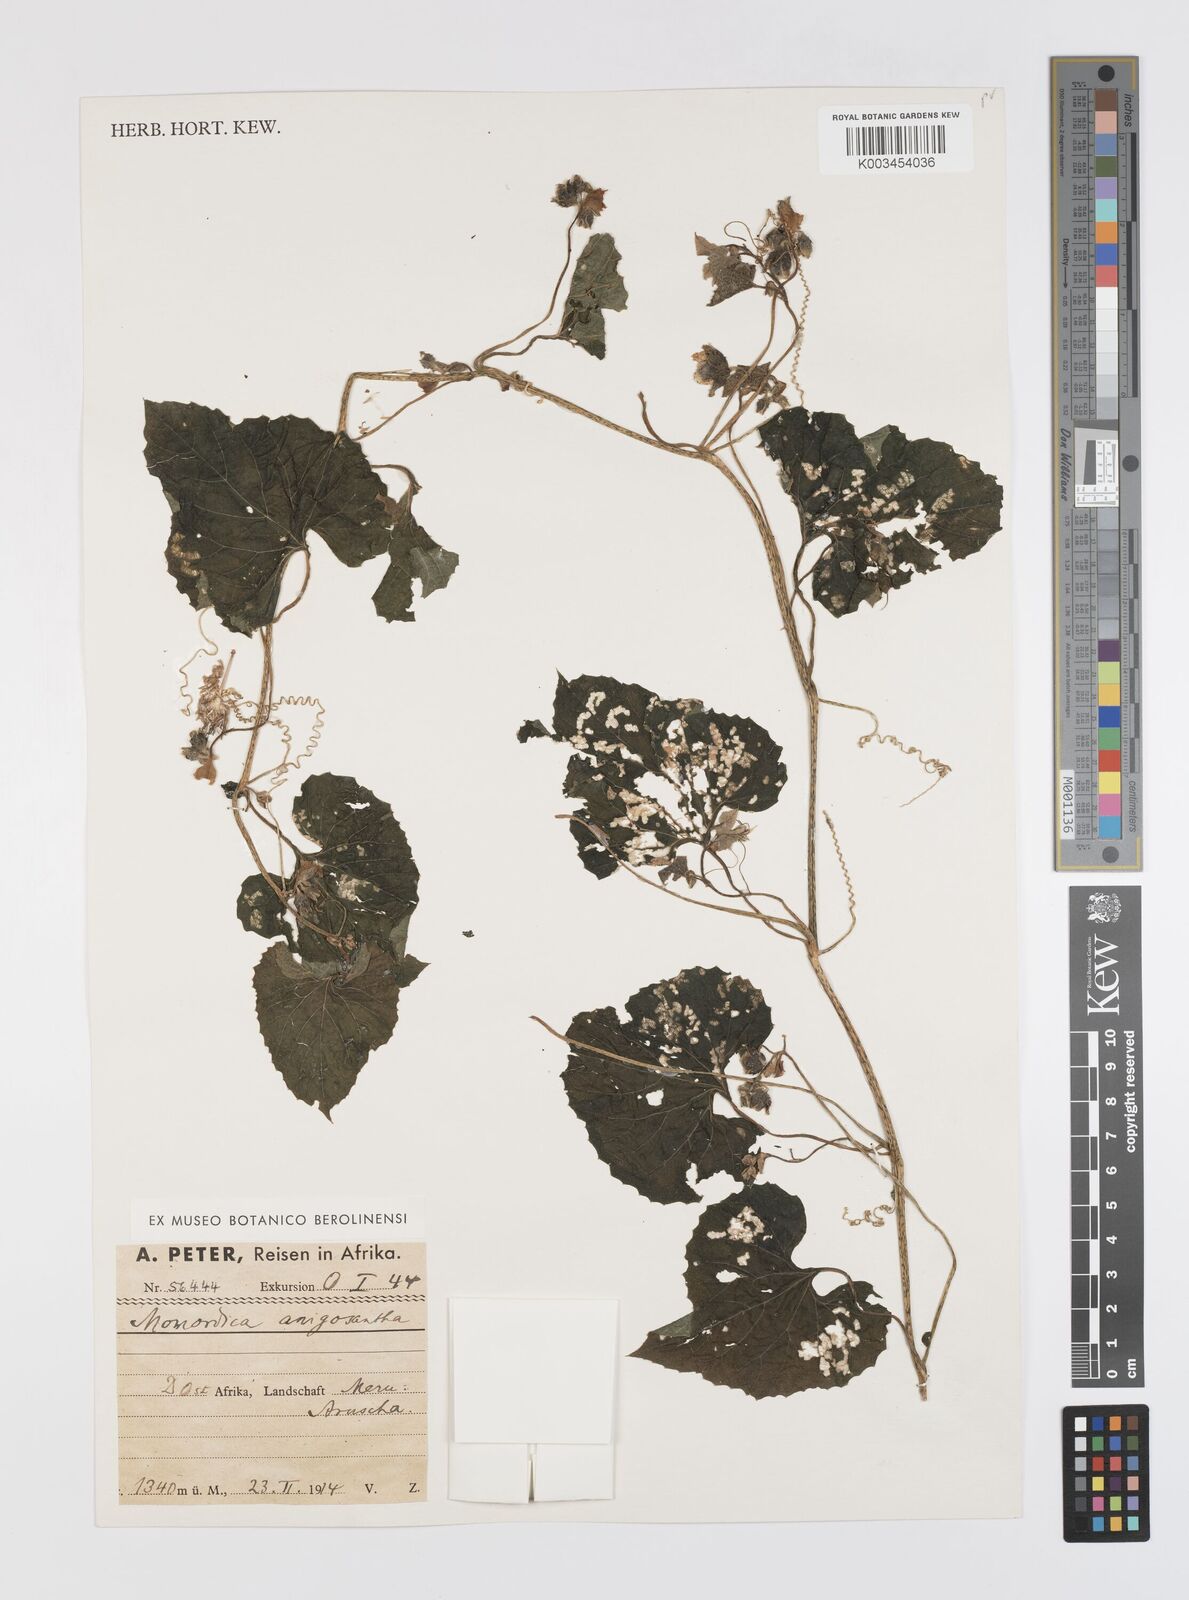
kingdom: Plantae
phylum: Tracheophyta
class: Magnoliopsida
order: Cucurbitales
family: Cucurbitaceae
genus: Momordica
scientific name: Momordica foetida
